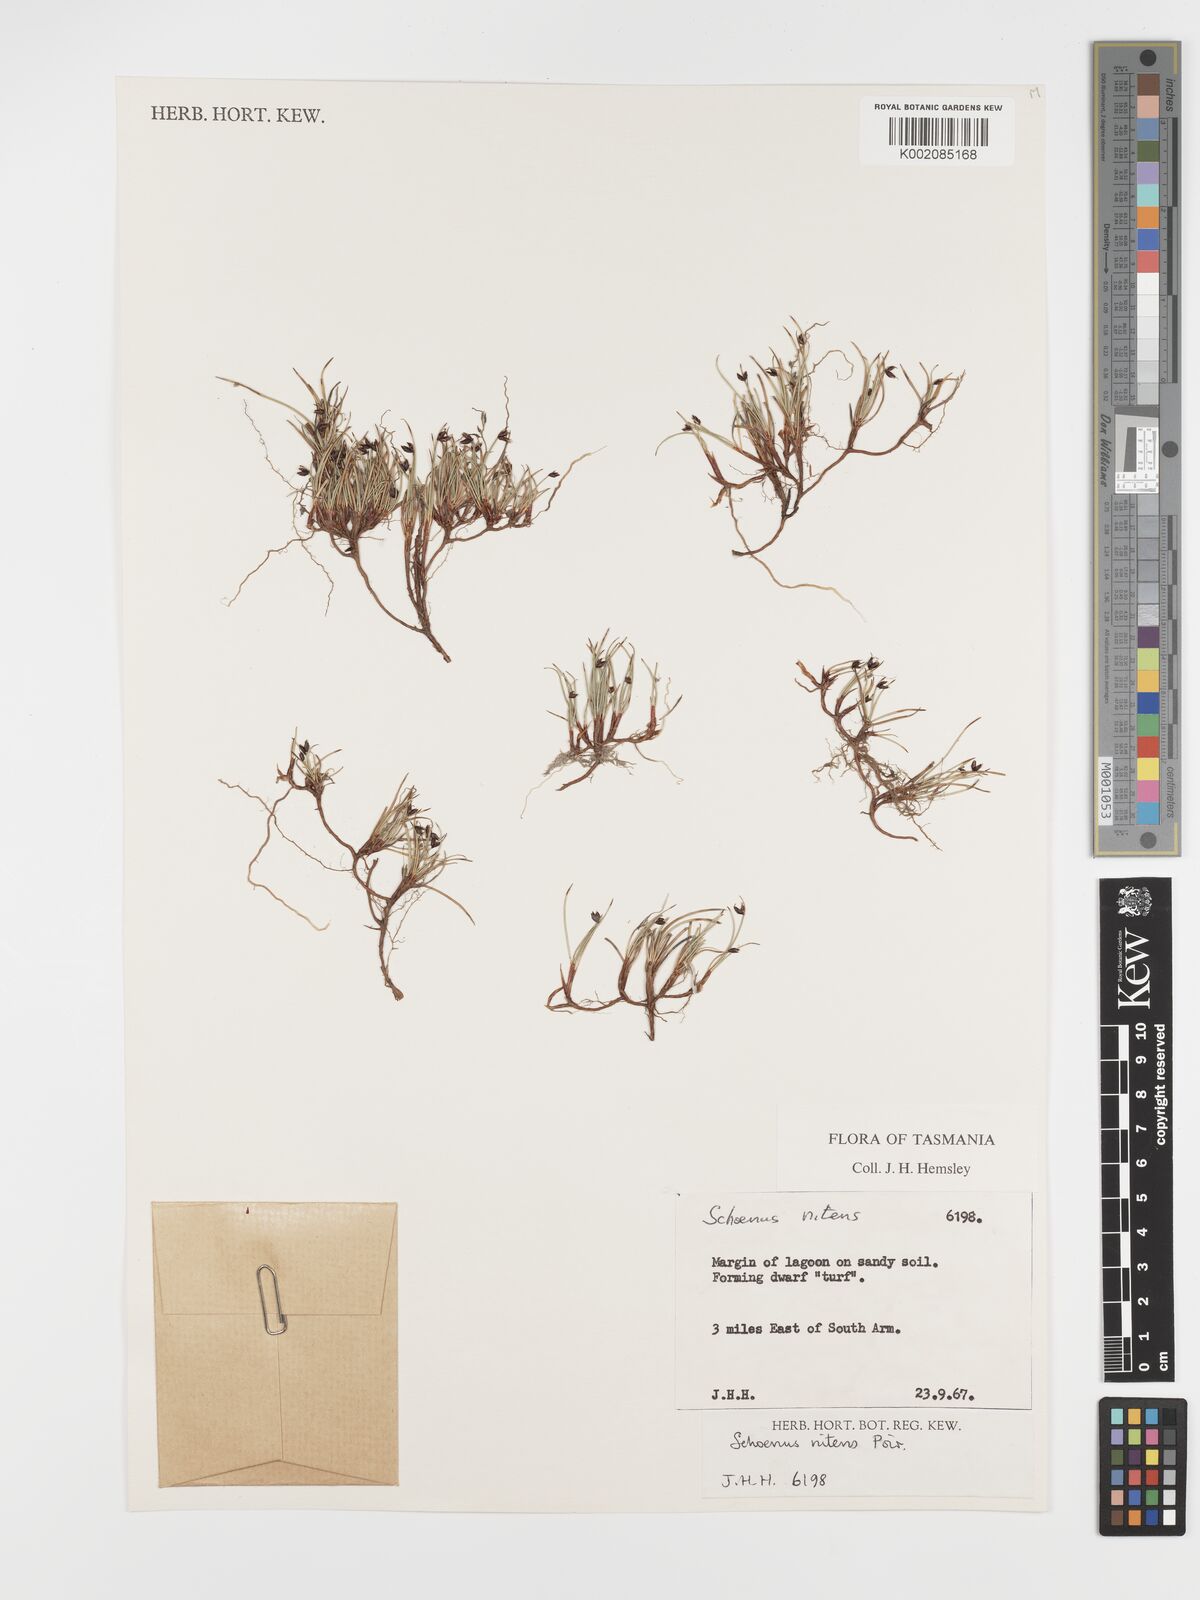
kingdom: Plantae
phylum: Tracheophyta
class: Liliopsida
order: Poales
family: Cyperaceae
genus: Schoenus
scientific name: Schoenus nitens
